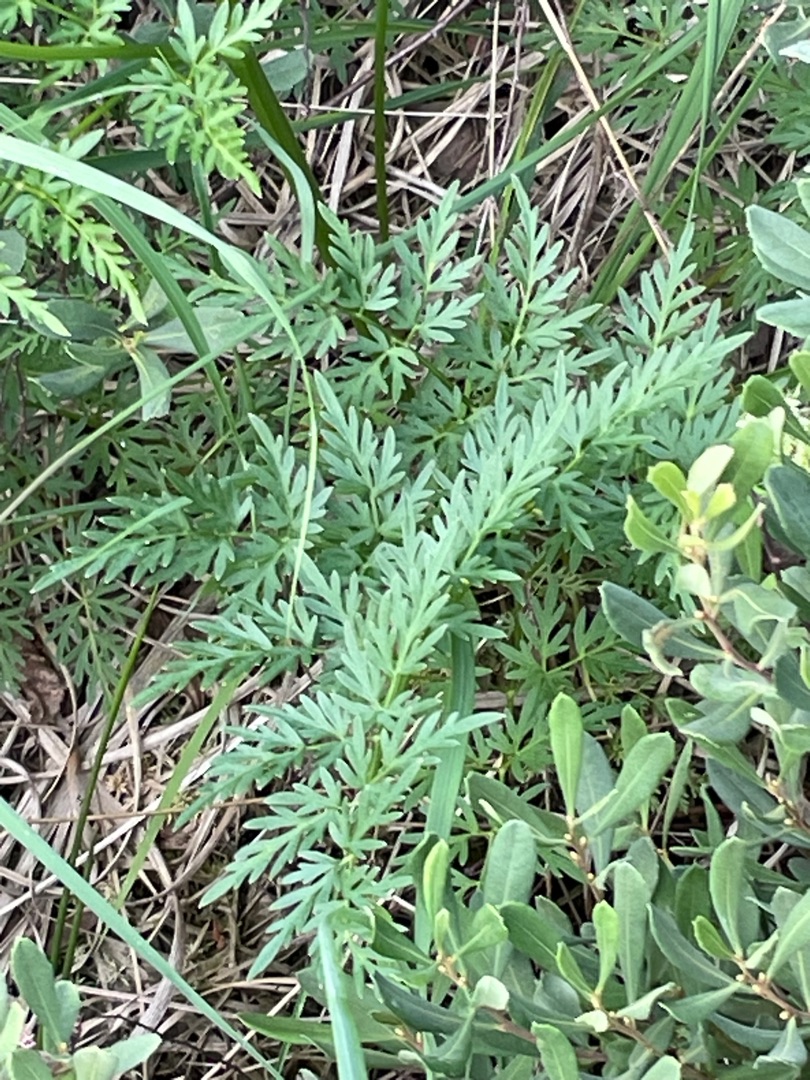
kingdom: Plantae
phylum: Tracheophyta
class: Magnoliopsida
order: Apiales
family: Apiaceae
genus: Thysselinum
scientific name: Thysselinum palustre
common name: Kær-svovlrod
